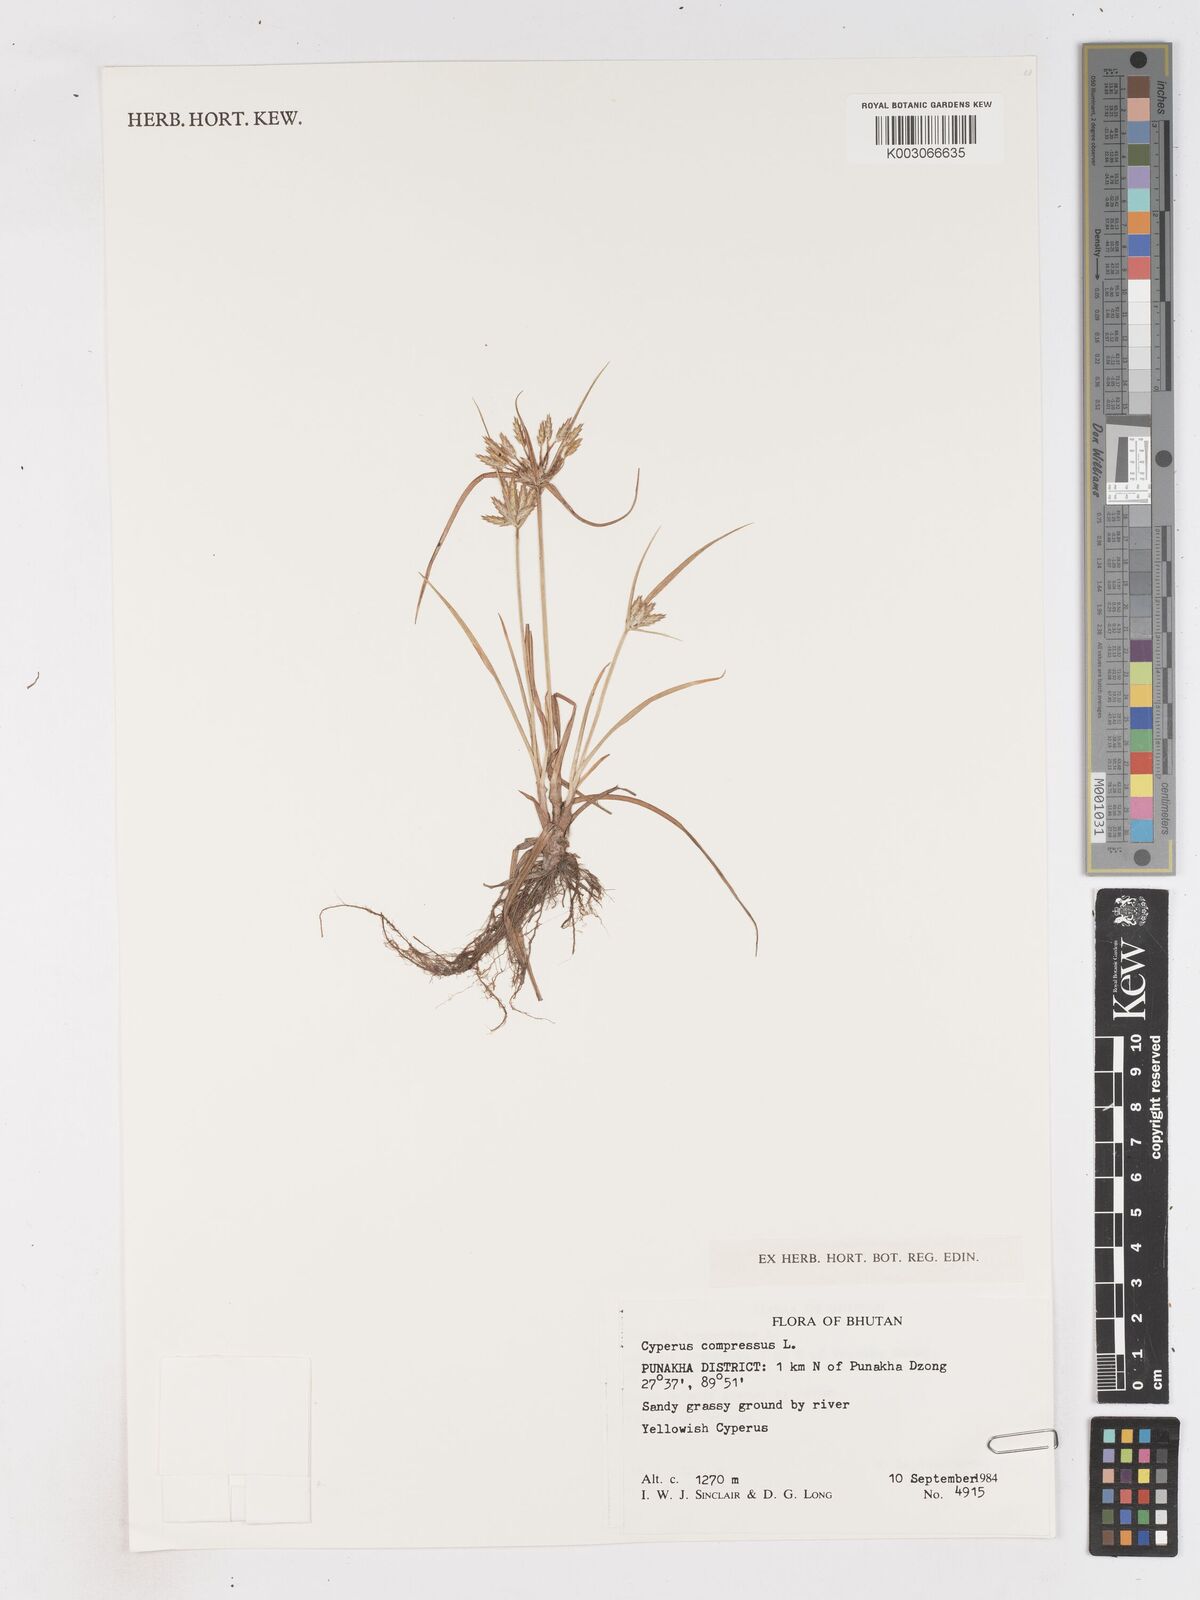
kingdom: Plantae
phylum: Tracheophyta
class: Liliopsida
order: Poales
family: Cyperaceae
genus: Cyperus
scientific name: Cyperus compressus
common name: Poorland flatsedge
